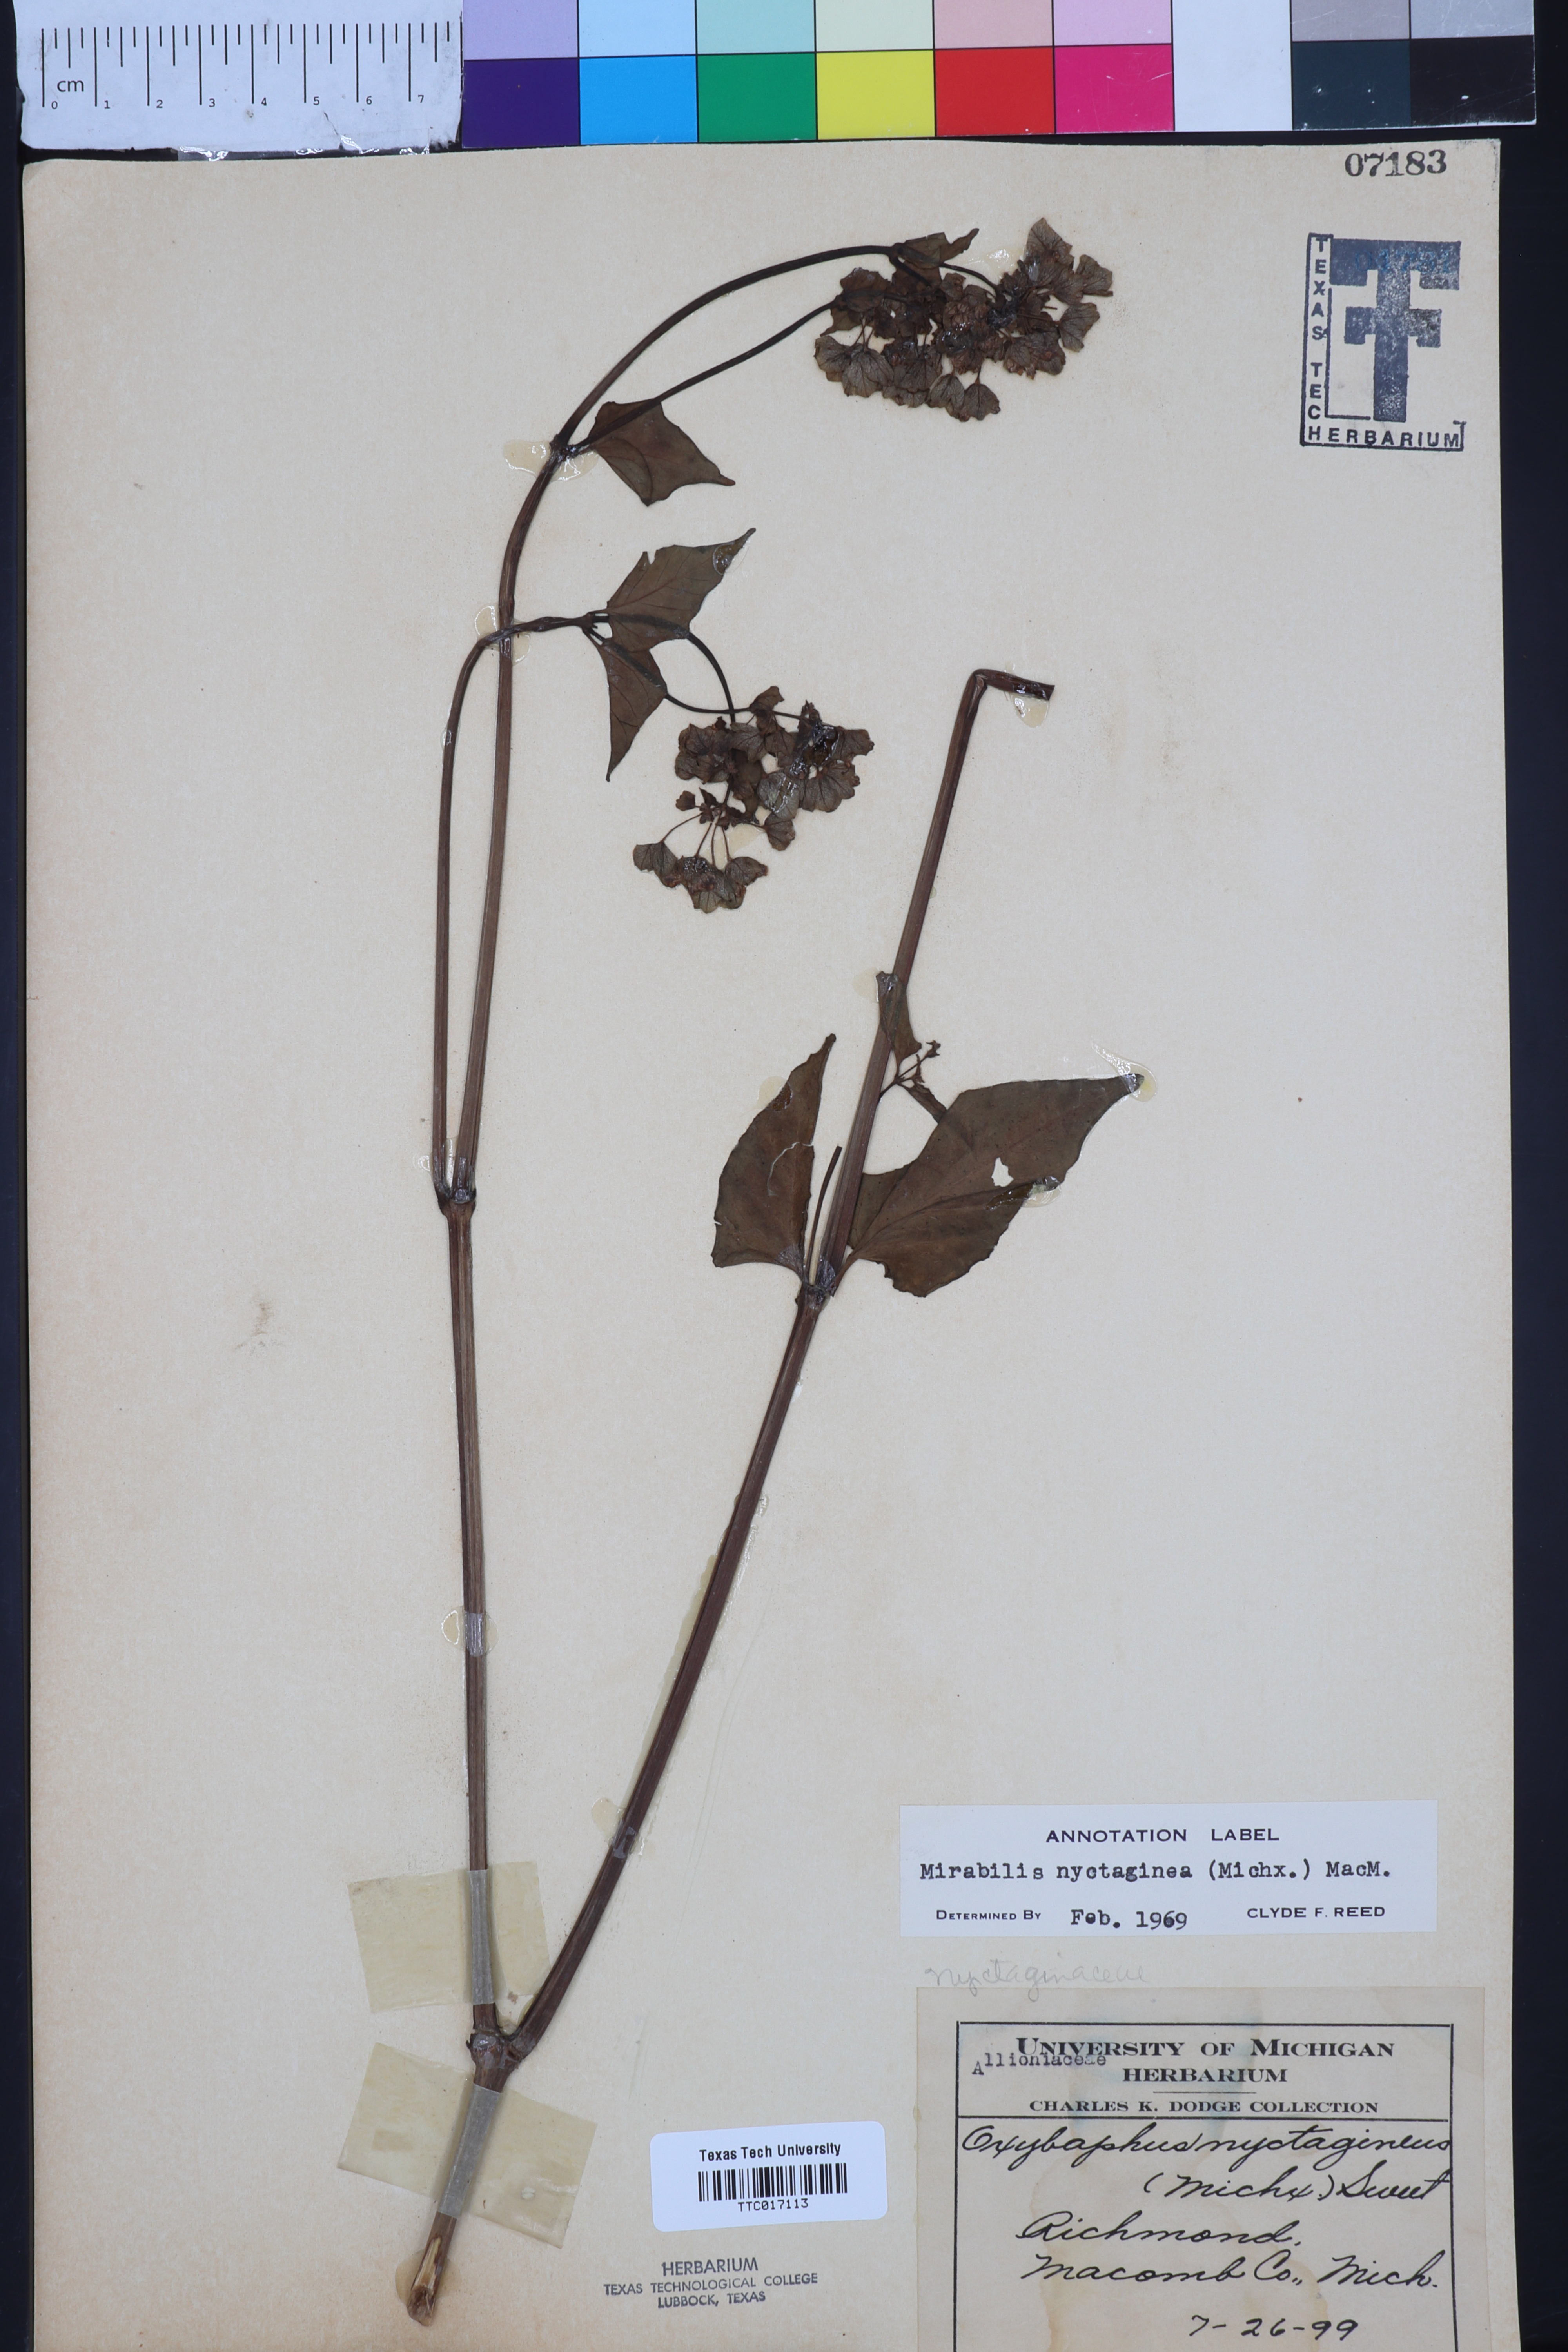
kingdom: Plantae
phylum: Tracheophyta
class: Magnoliopsida
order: Caryophyllales
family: Nyctaginaceae
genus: Mirabilis
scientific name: Mirabilis nyctaginea
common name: Umbrella wort
